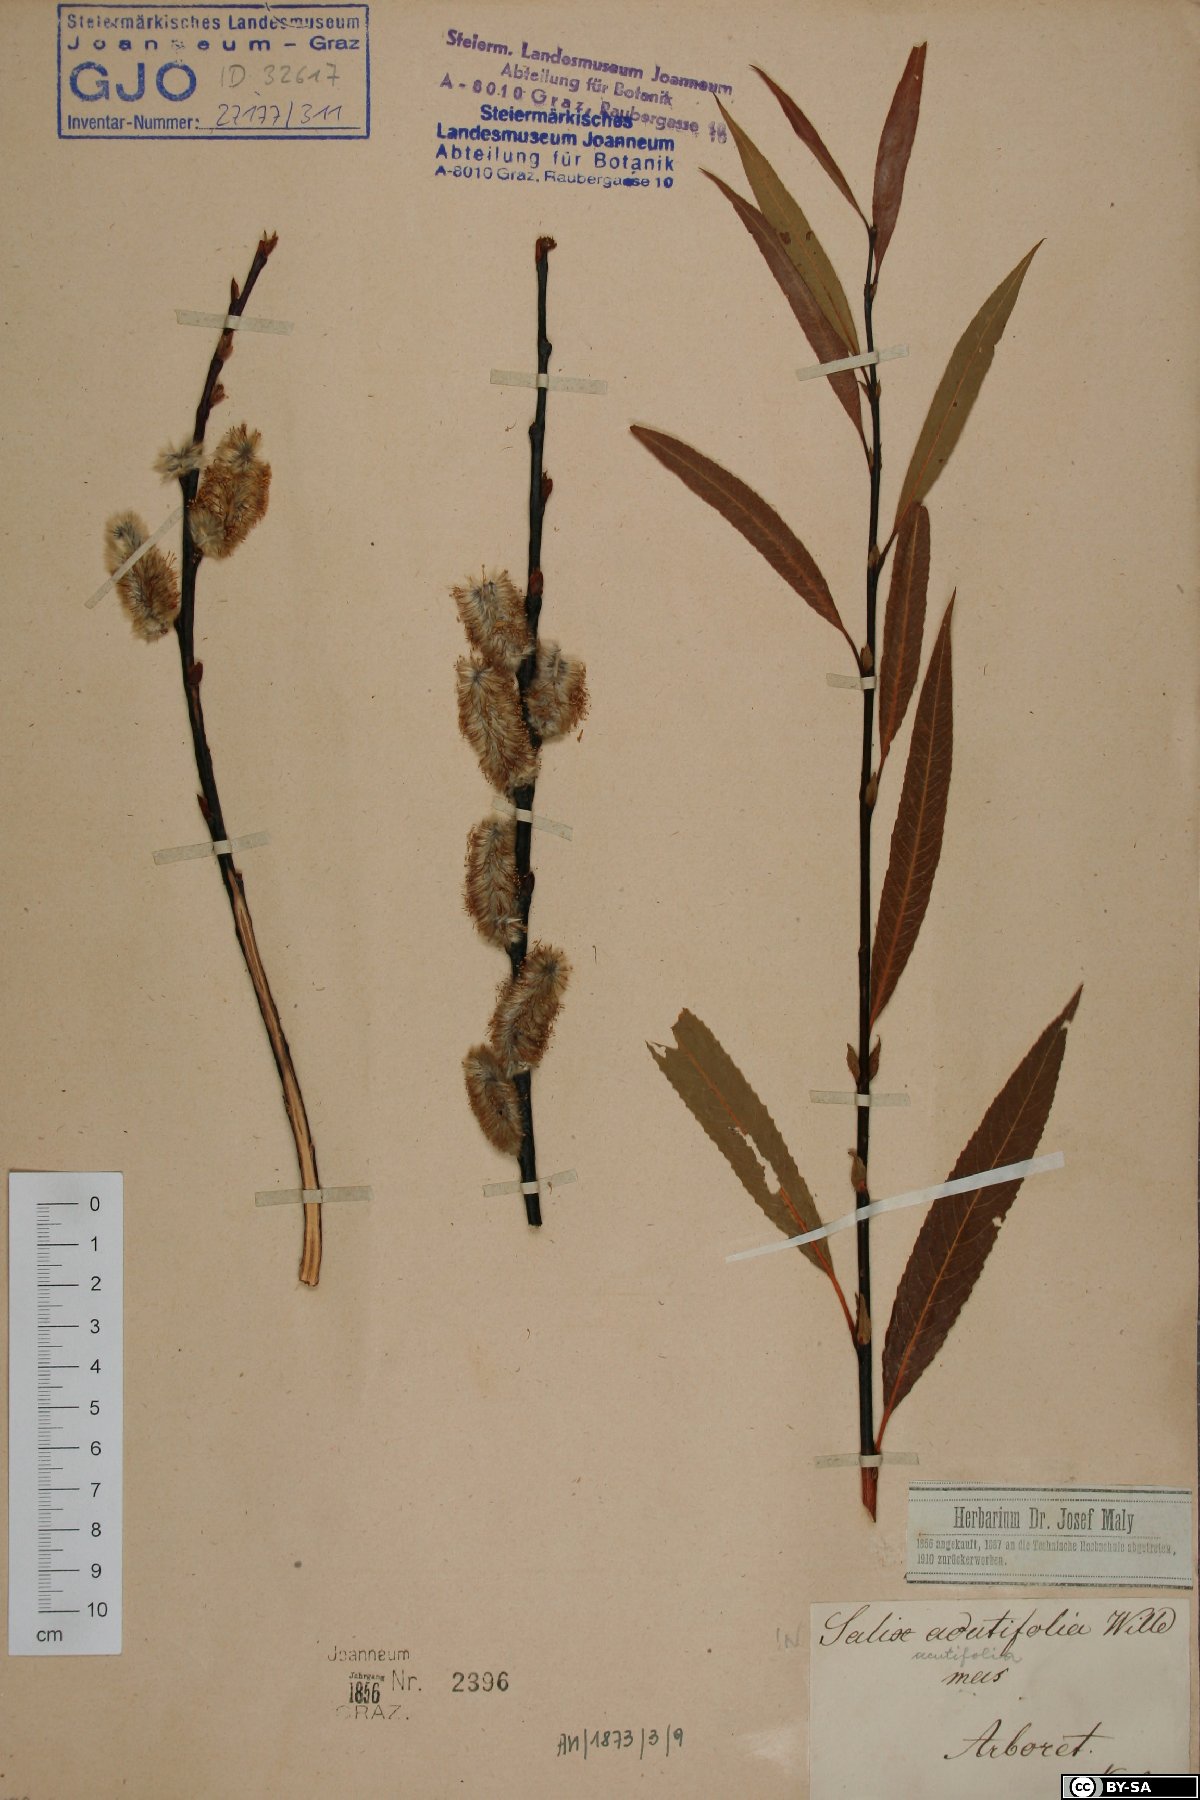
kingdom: Plantae
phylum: Tracheophyta
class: Magnoliopsida
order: Malpighiales
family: Salicaceae
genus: Salix
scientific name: Salix acutifolia
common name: Siberian violet-willow
